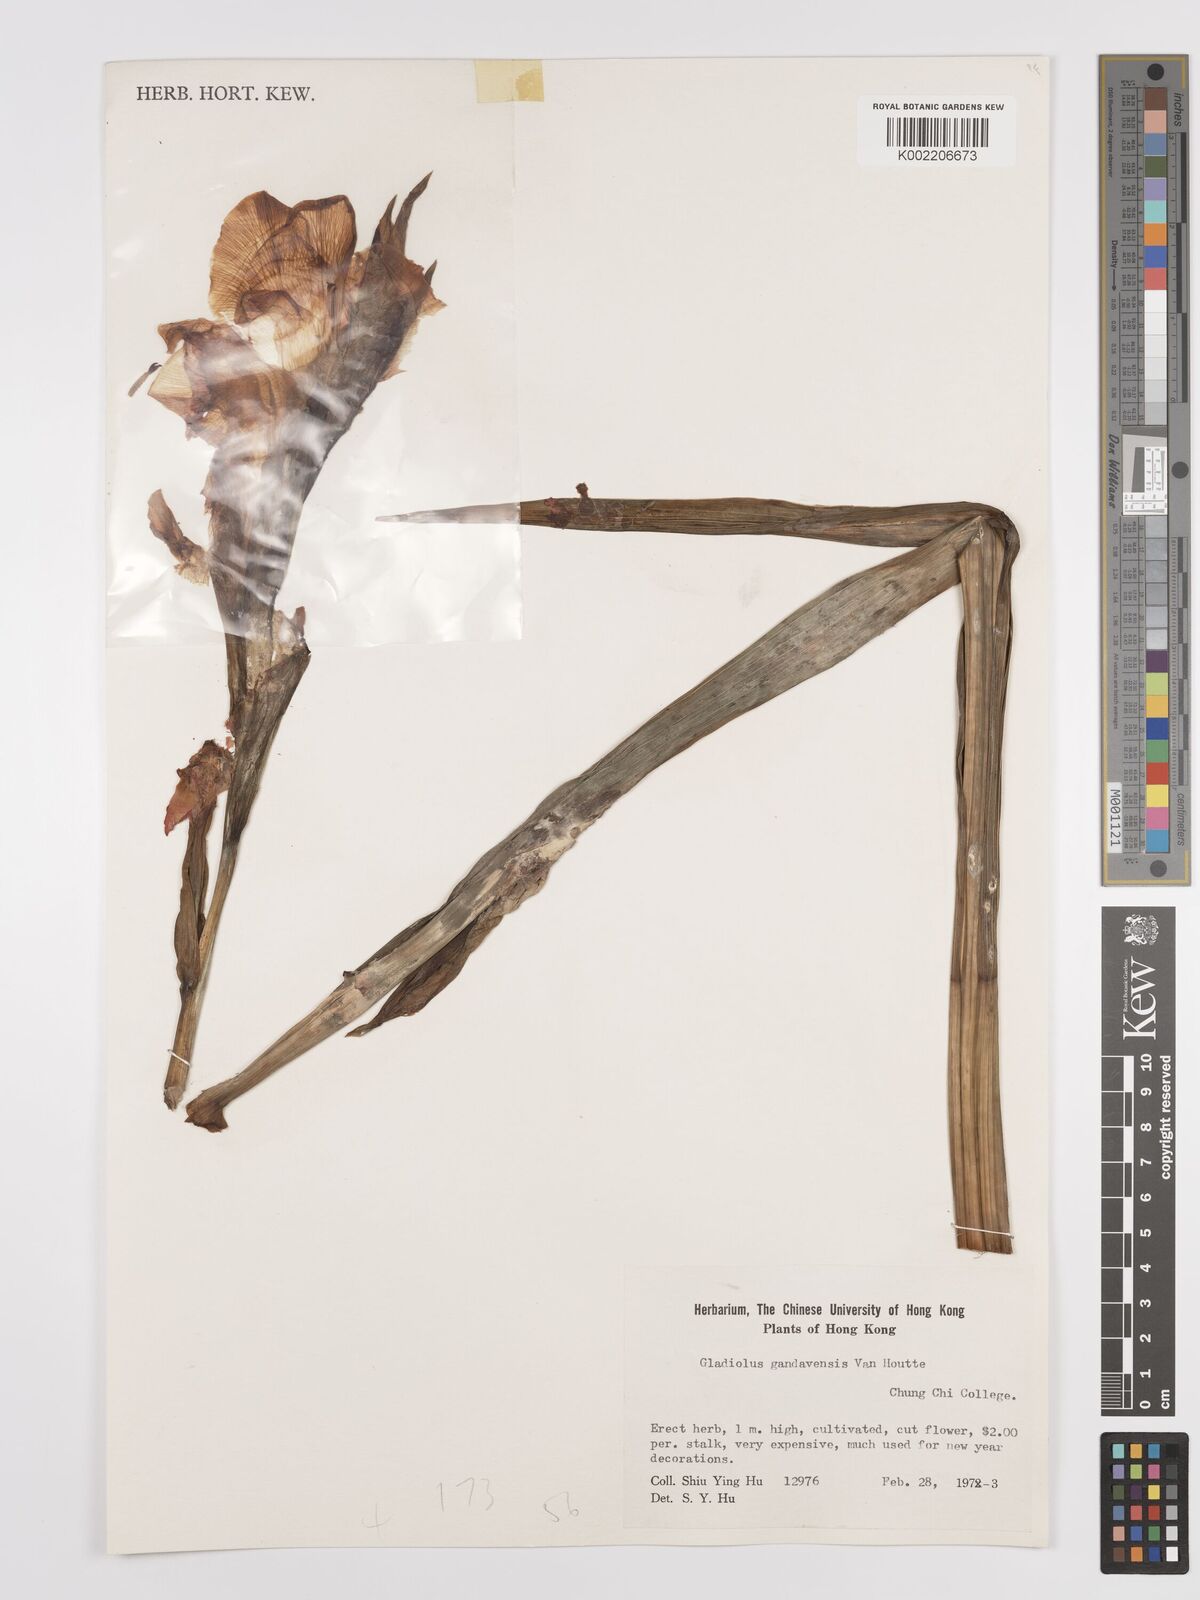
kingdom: Plantae
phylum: Tracheophyta
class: Liliopsida
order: Asparagales
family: Iridaceae
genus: Gladiolus
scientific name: Gladiolus gandavensis
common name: Gladiolus
